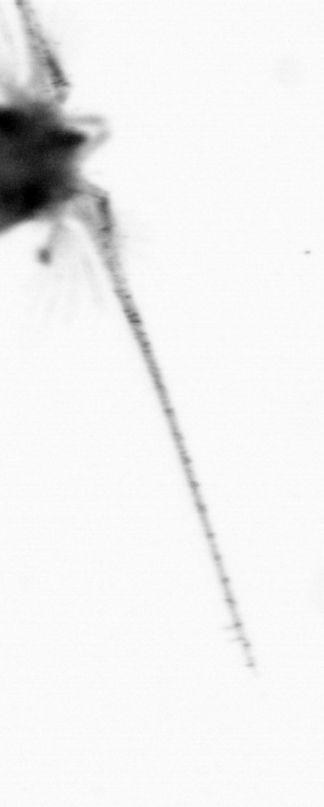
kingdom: Animalia
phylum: Arthropoda
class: Copepoda
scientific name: Copepoda
